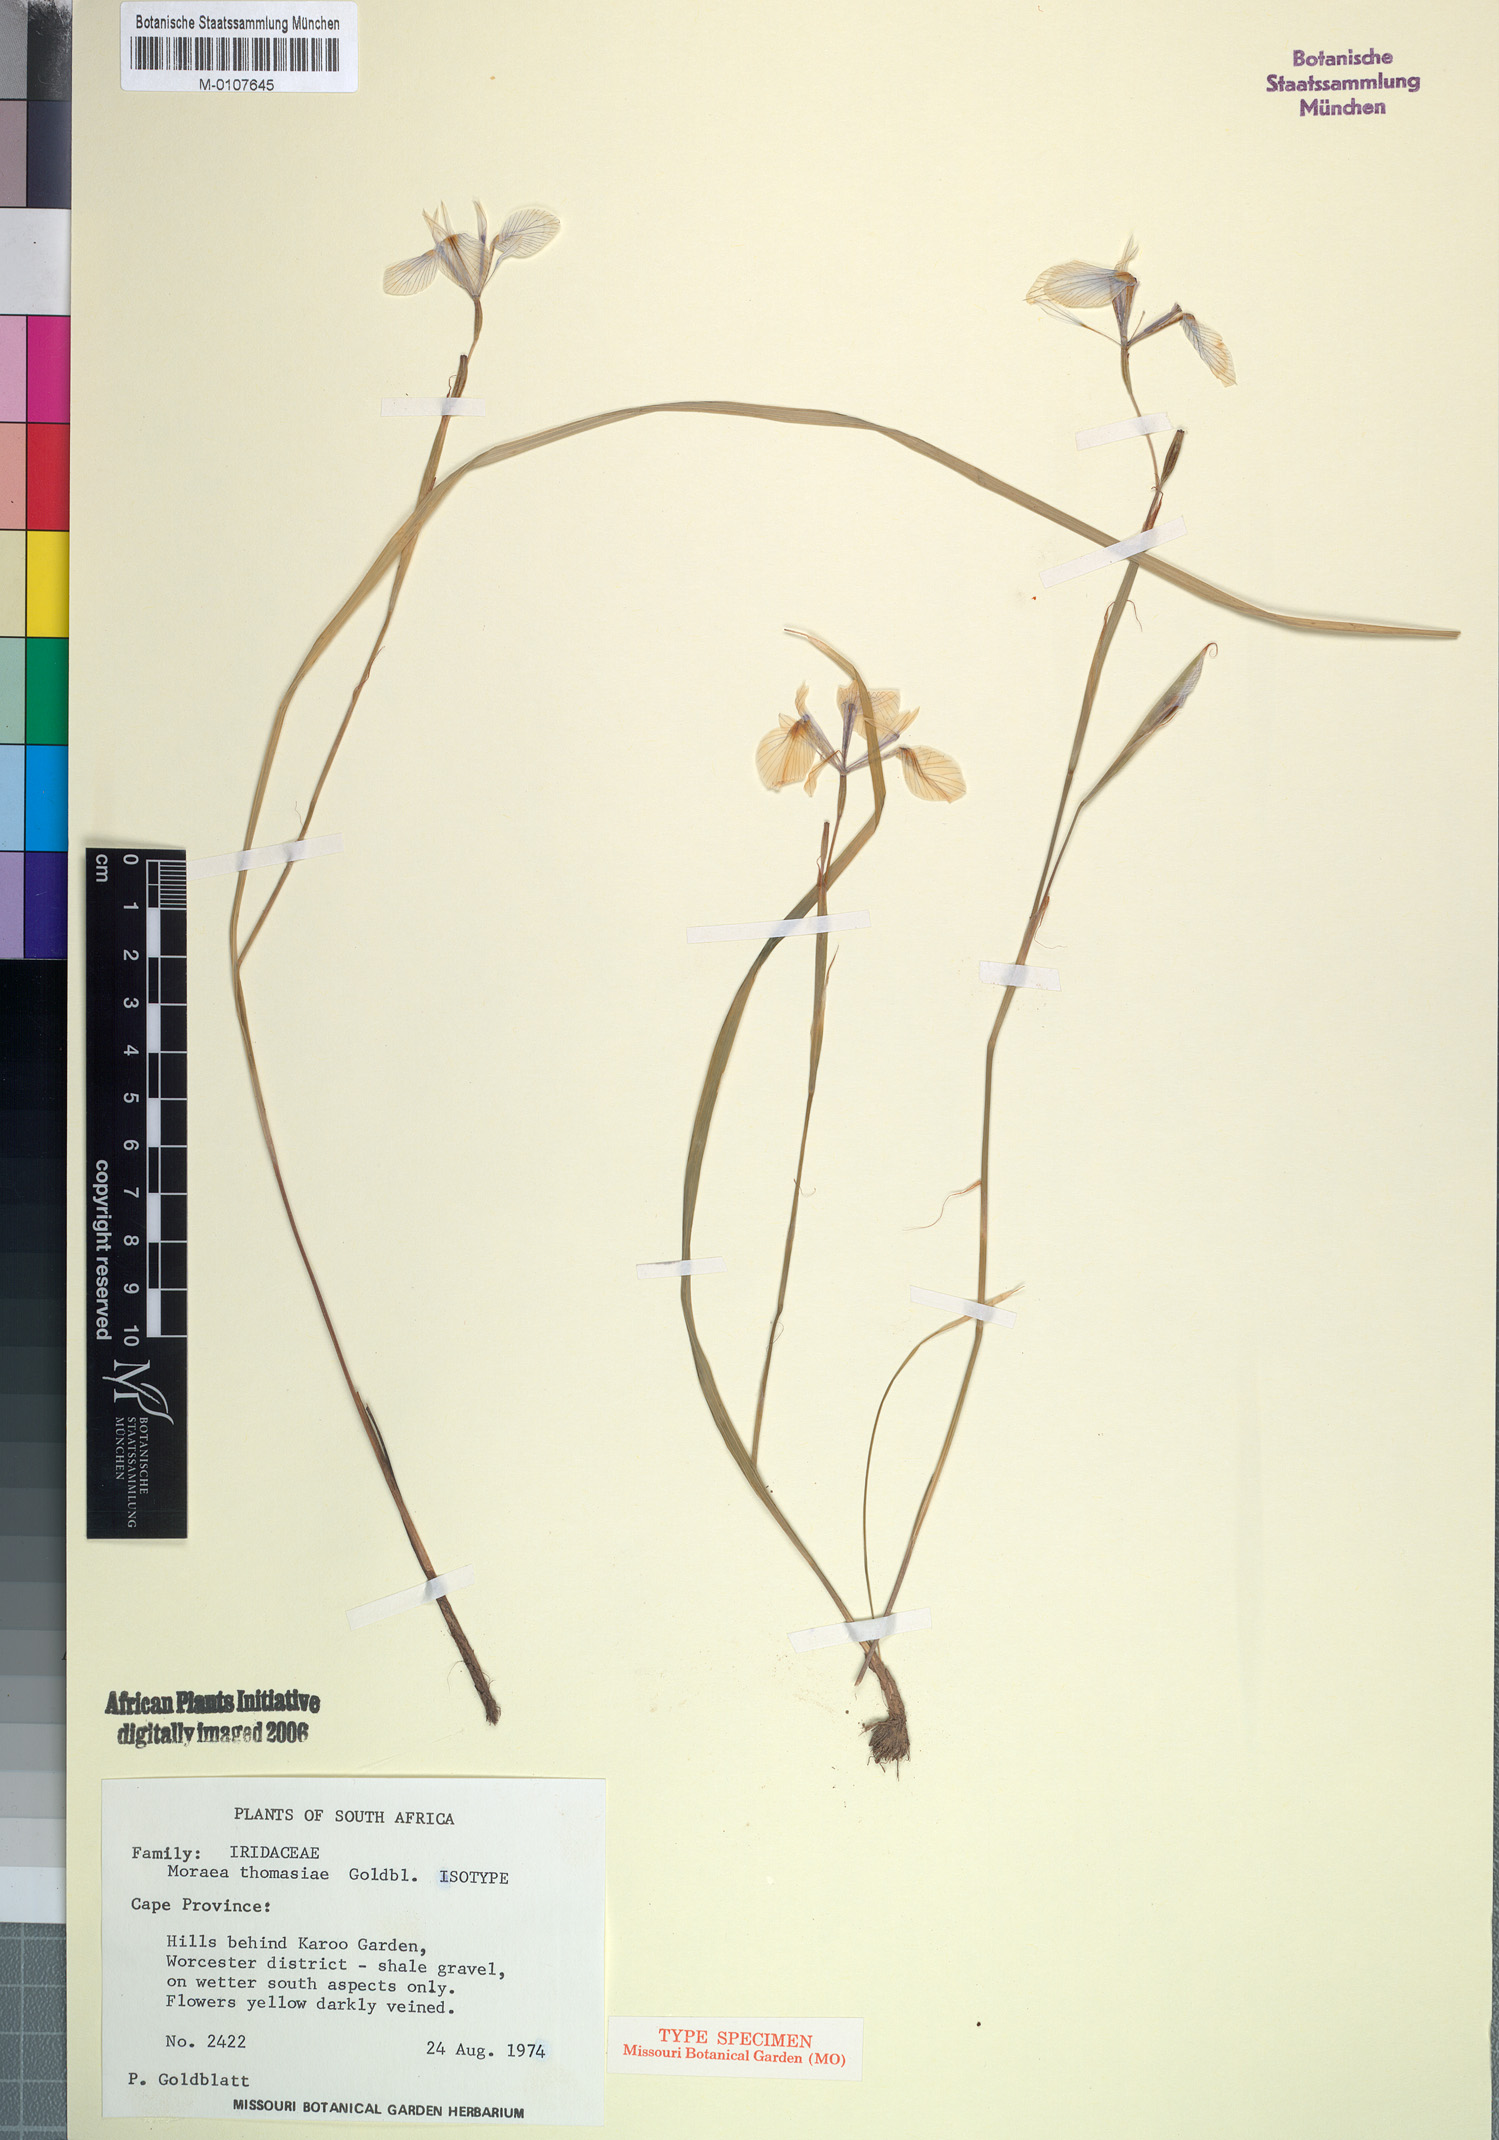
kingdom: Plantae
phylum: Tracheophyta
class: Liliopsida
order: Asparagales
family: Iridaceae
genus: Moraea
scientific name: Moraea thomasiae
